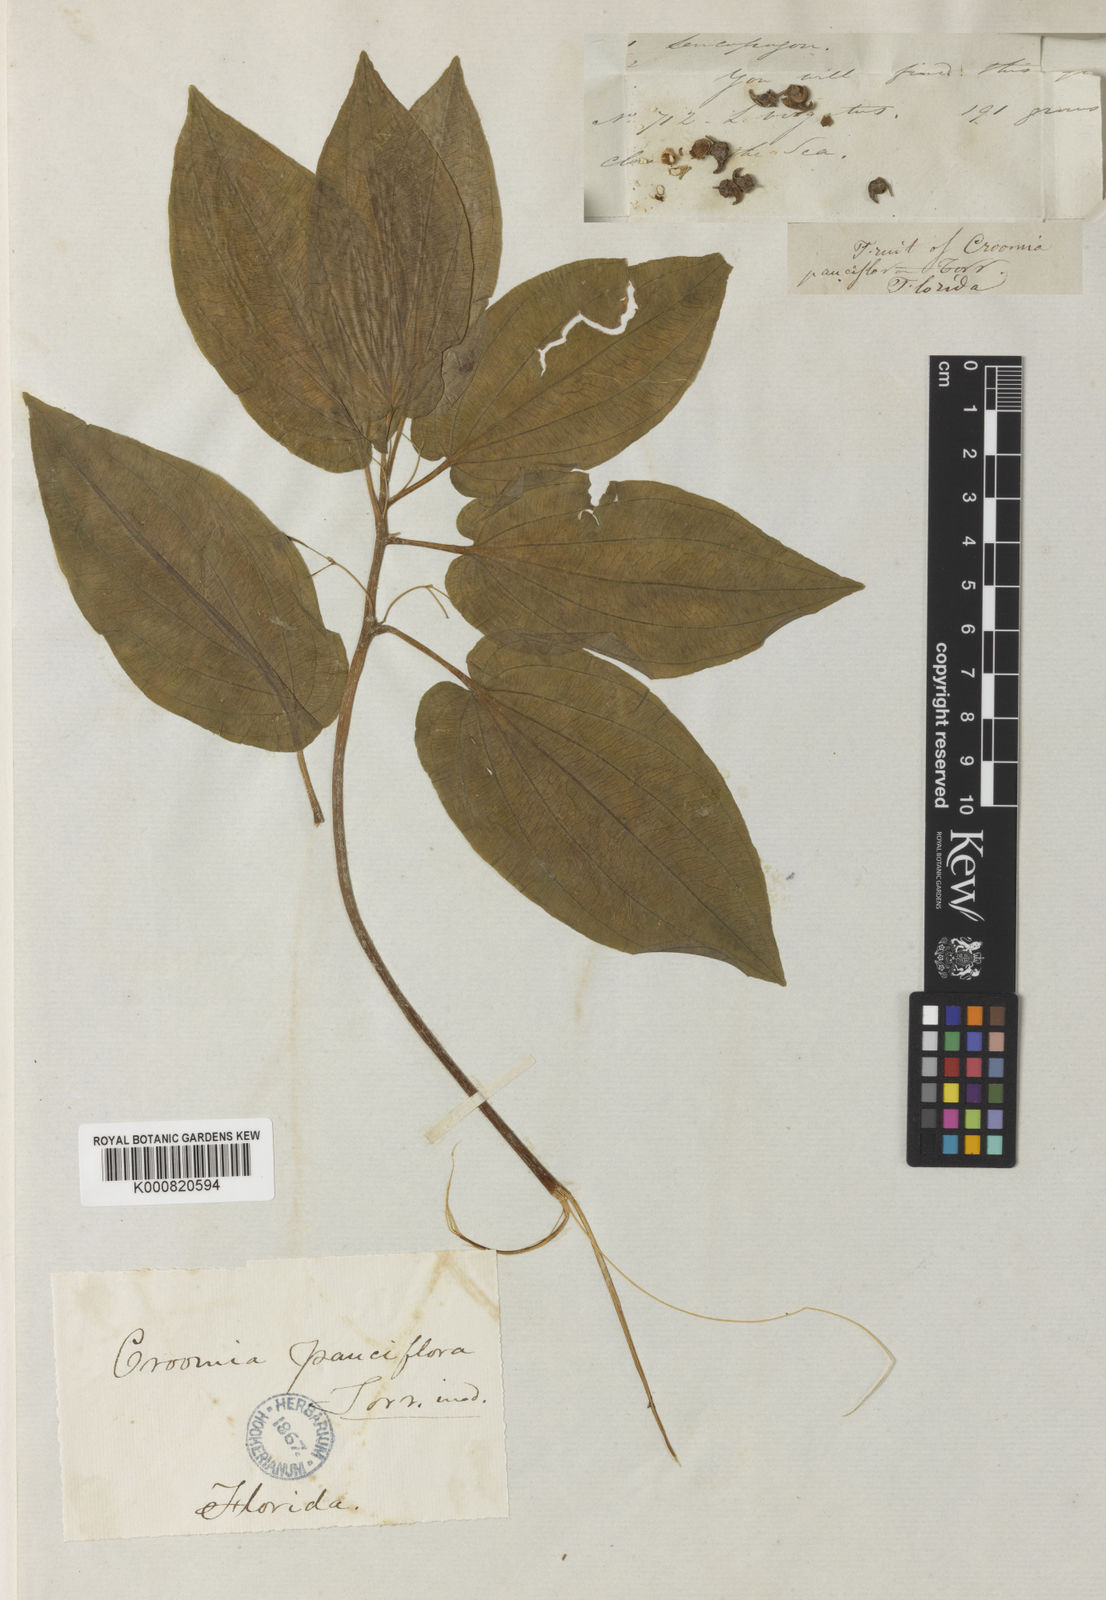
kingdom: Plantae
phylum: Tracheophyta
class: Liliopsida
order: Pandanales
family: Stemonaceae
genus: Croomia
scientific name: Croomia pauciflora
